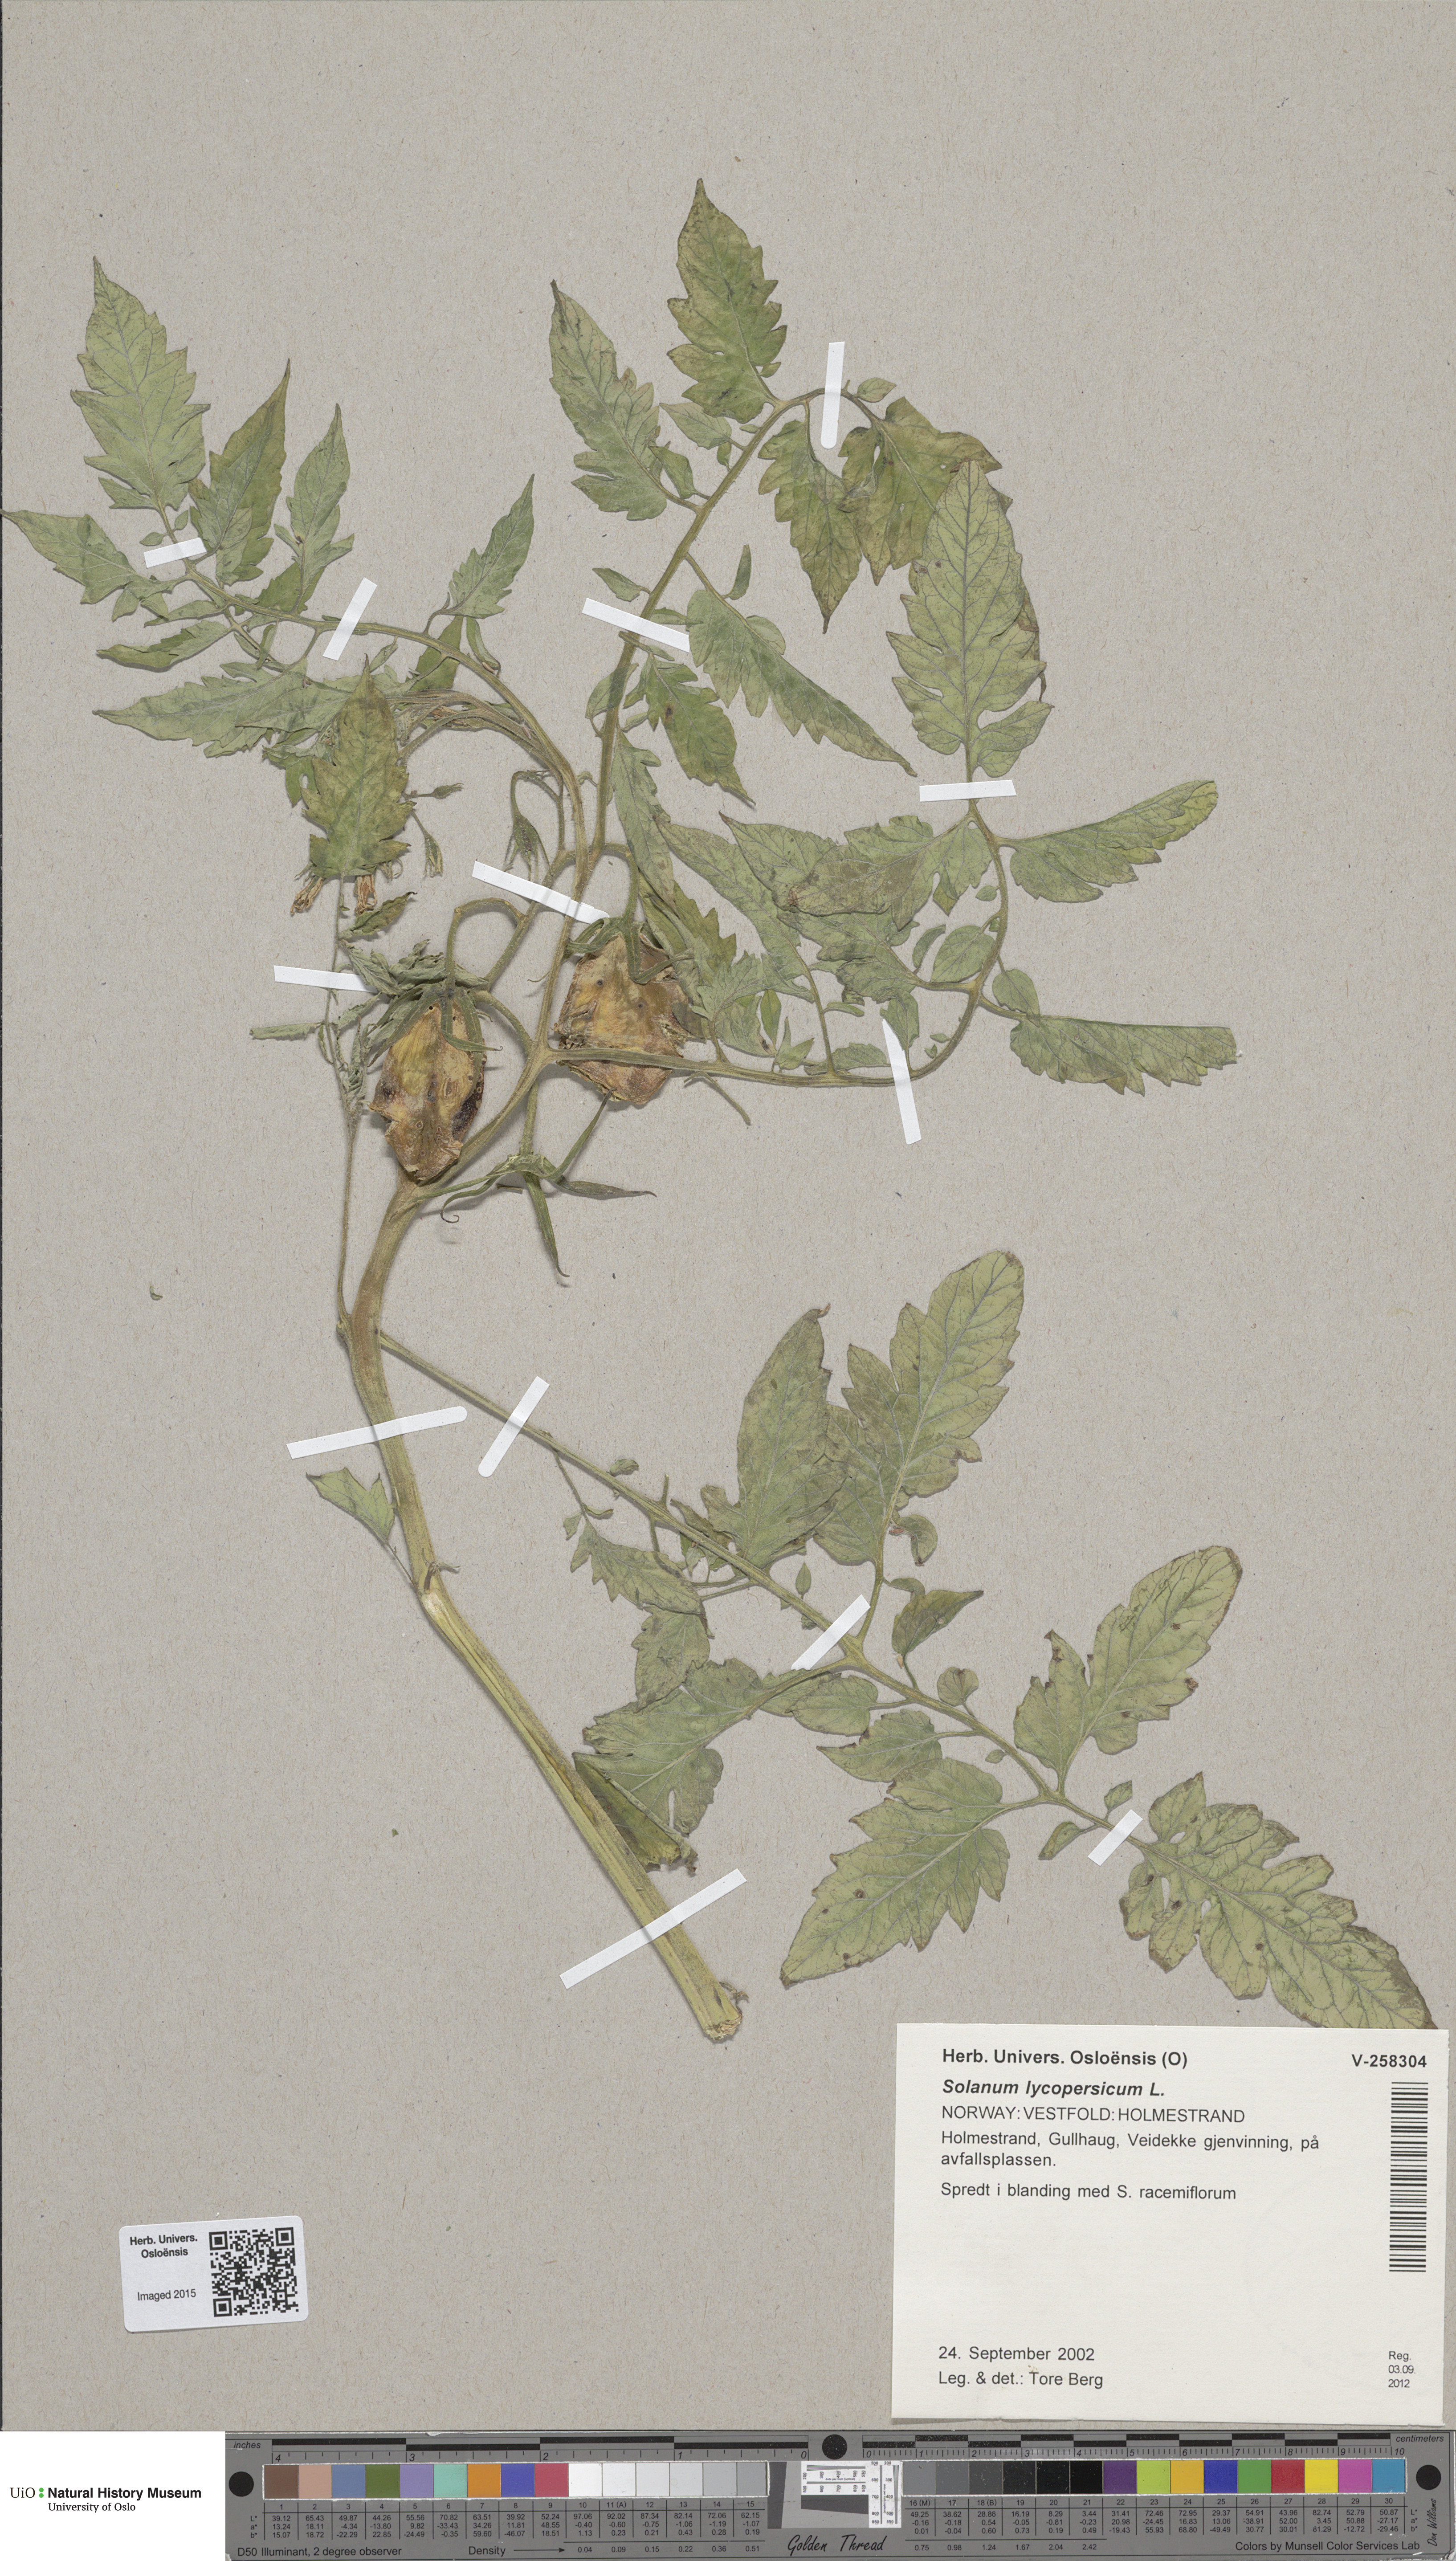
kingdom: Plantae
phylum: Tracheophyta
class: Magnoliopsida
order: Solanales
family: Solanaceae
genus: Solanum
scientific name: Solanum
